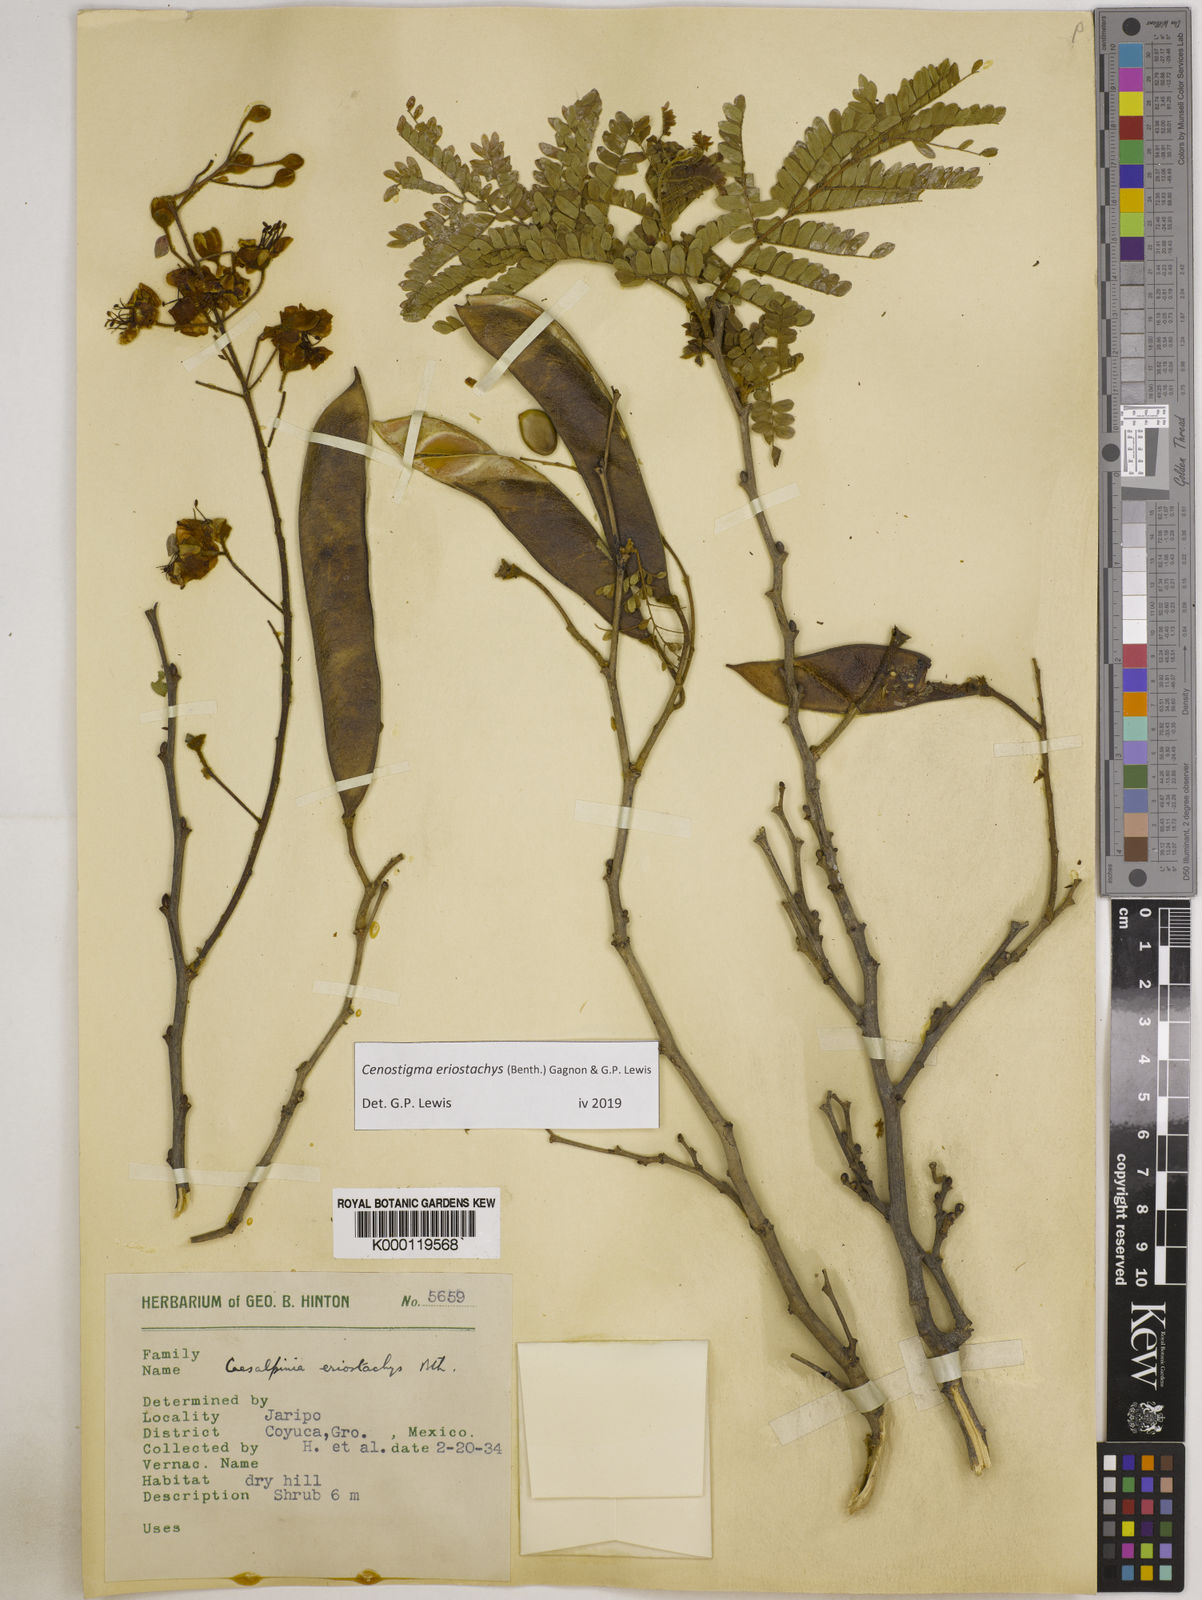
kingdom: Plantae
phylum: Tracheophyta
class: Magnoliopsida
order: Fabales
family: Fabaceae
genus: Cenostigma
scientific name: Cenostigma eriostachys
